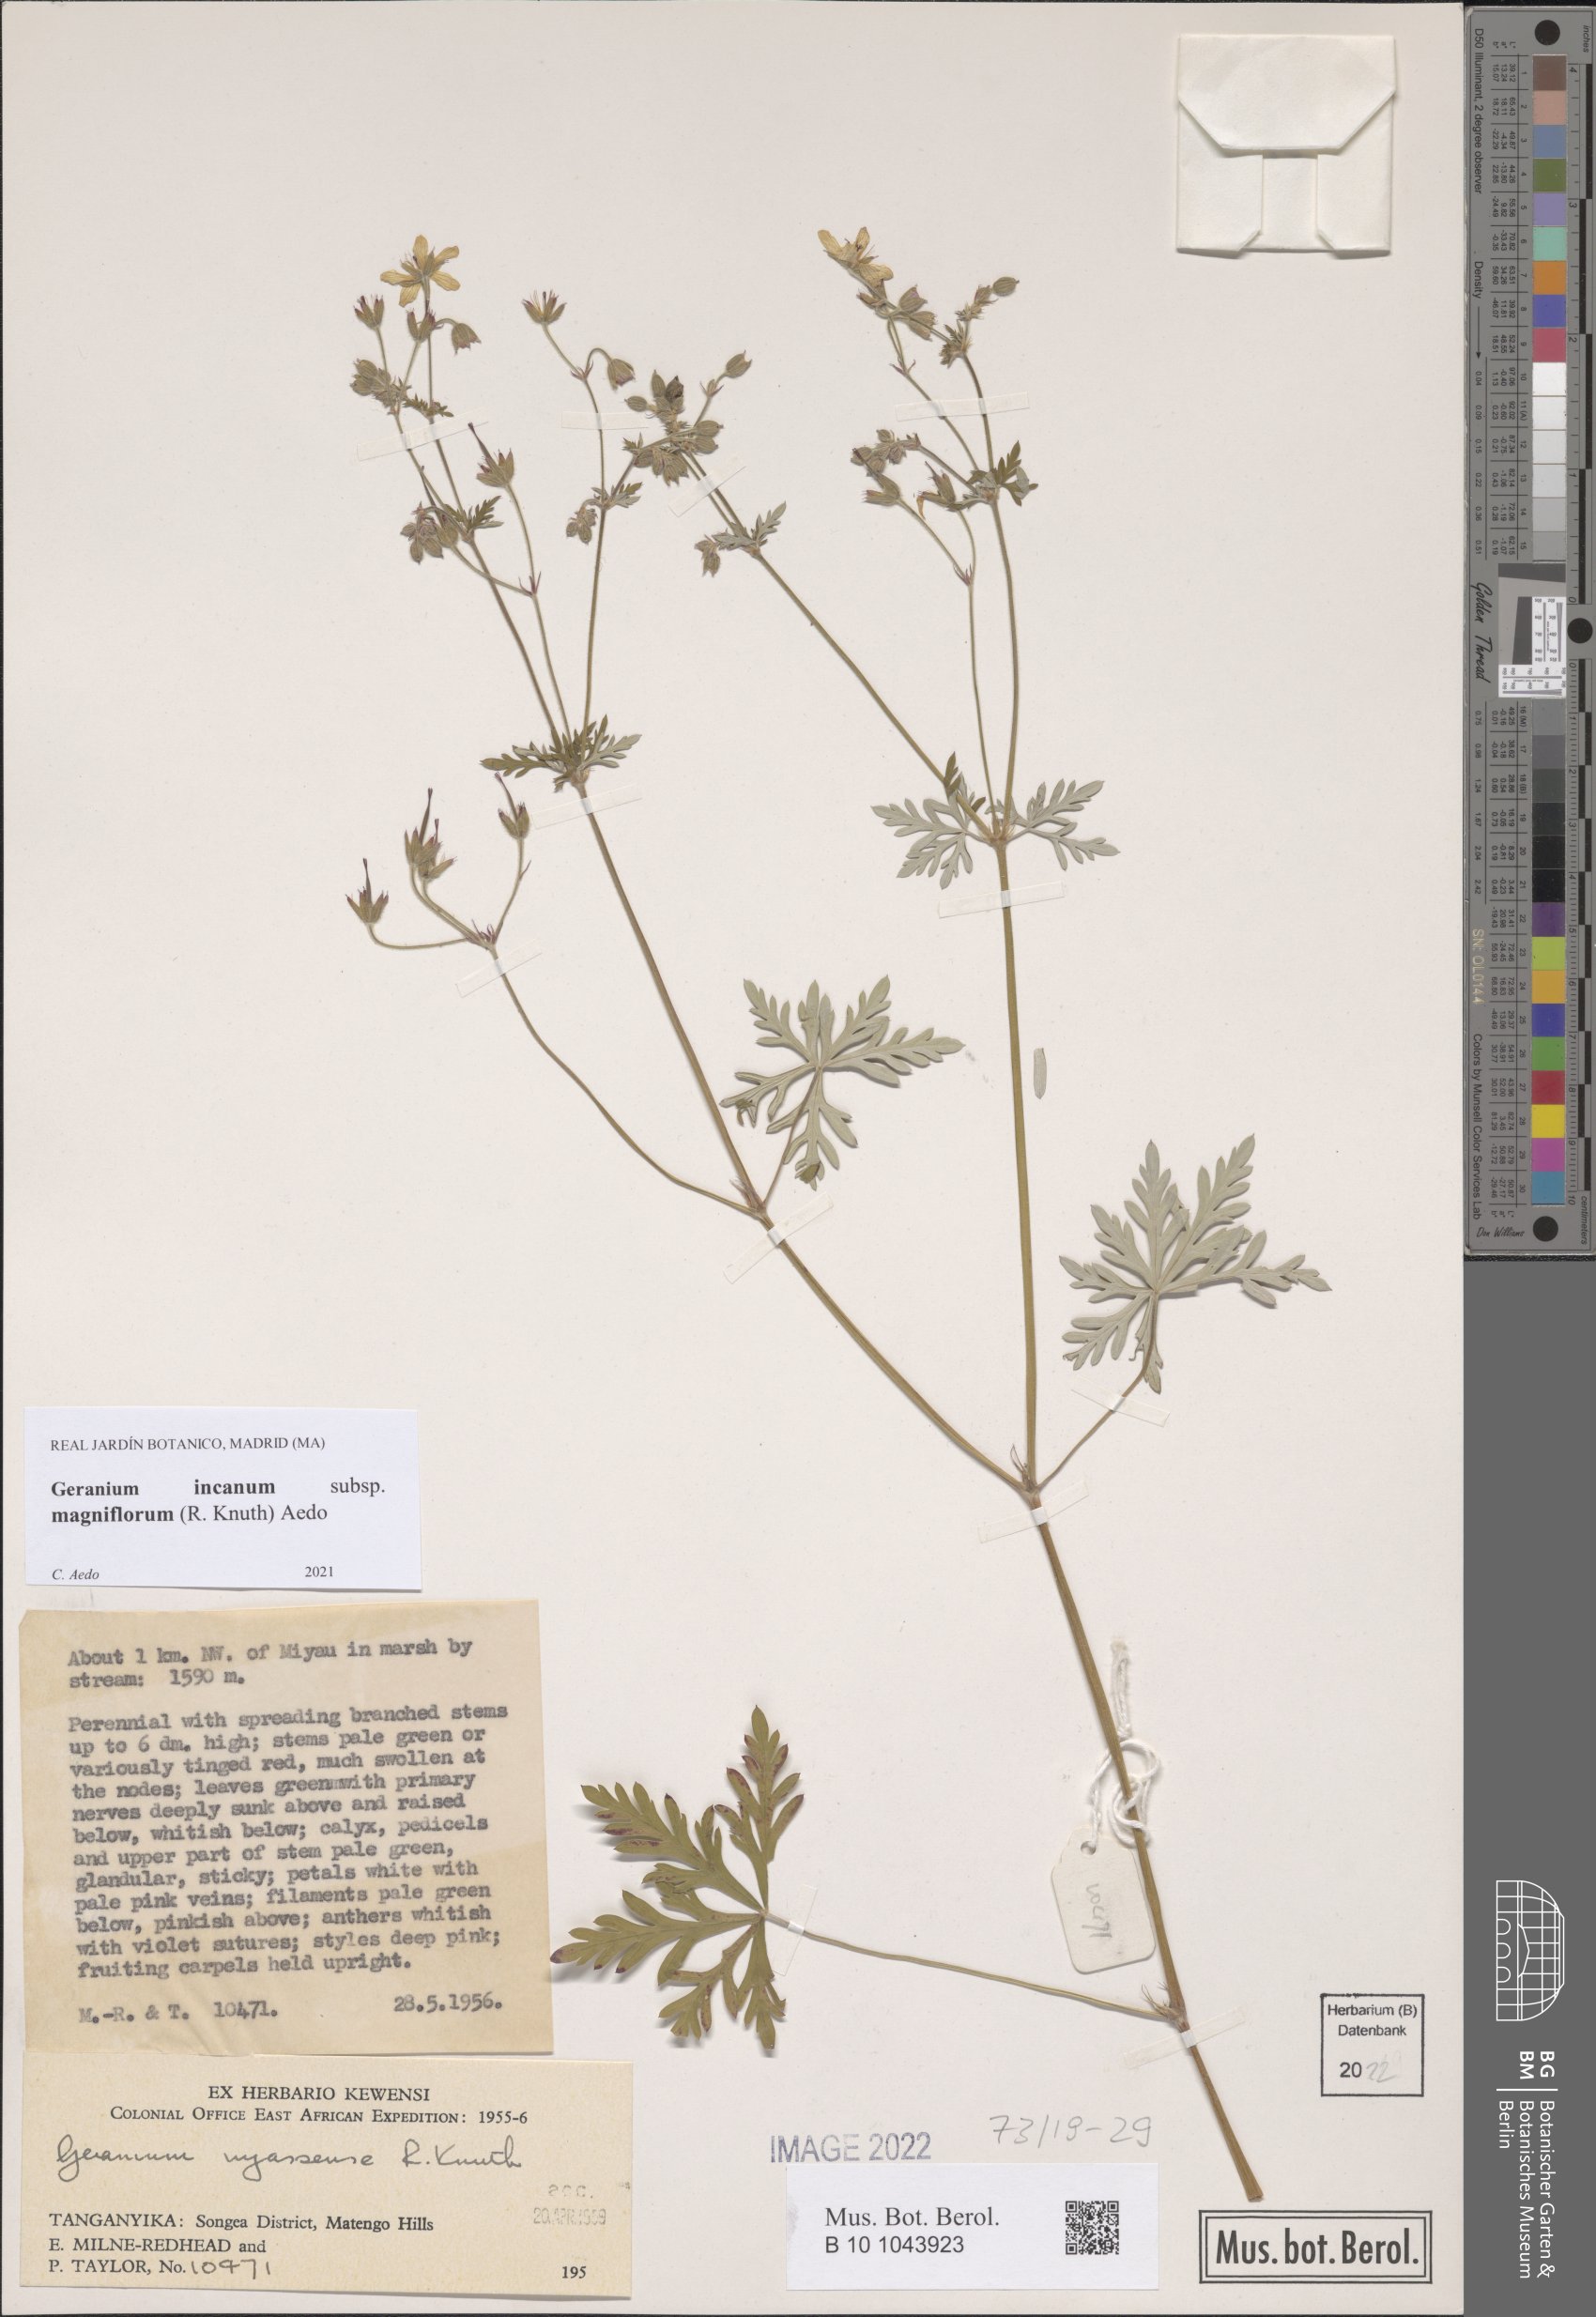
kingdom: Plantae
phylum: Tracheophyta
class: Magnoliopsida
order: Geraniales
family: Geraniaceae
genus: Geranium
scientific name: Geranium incanum
